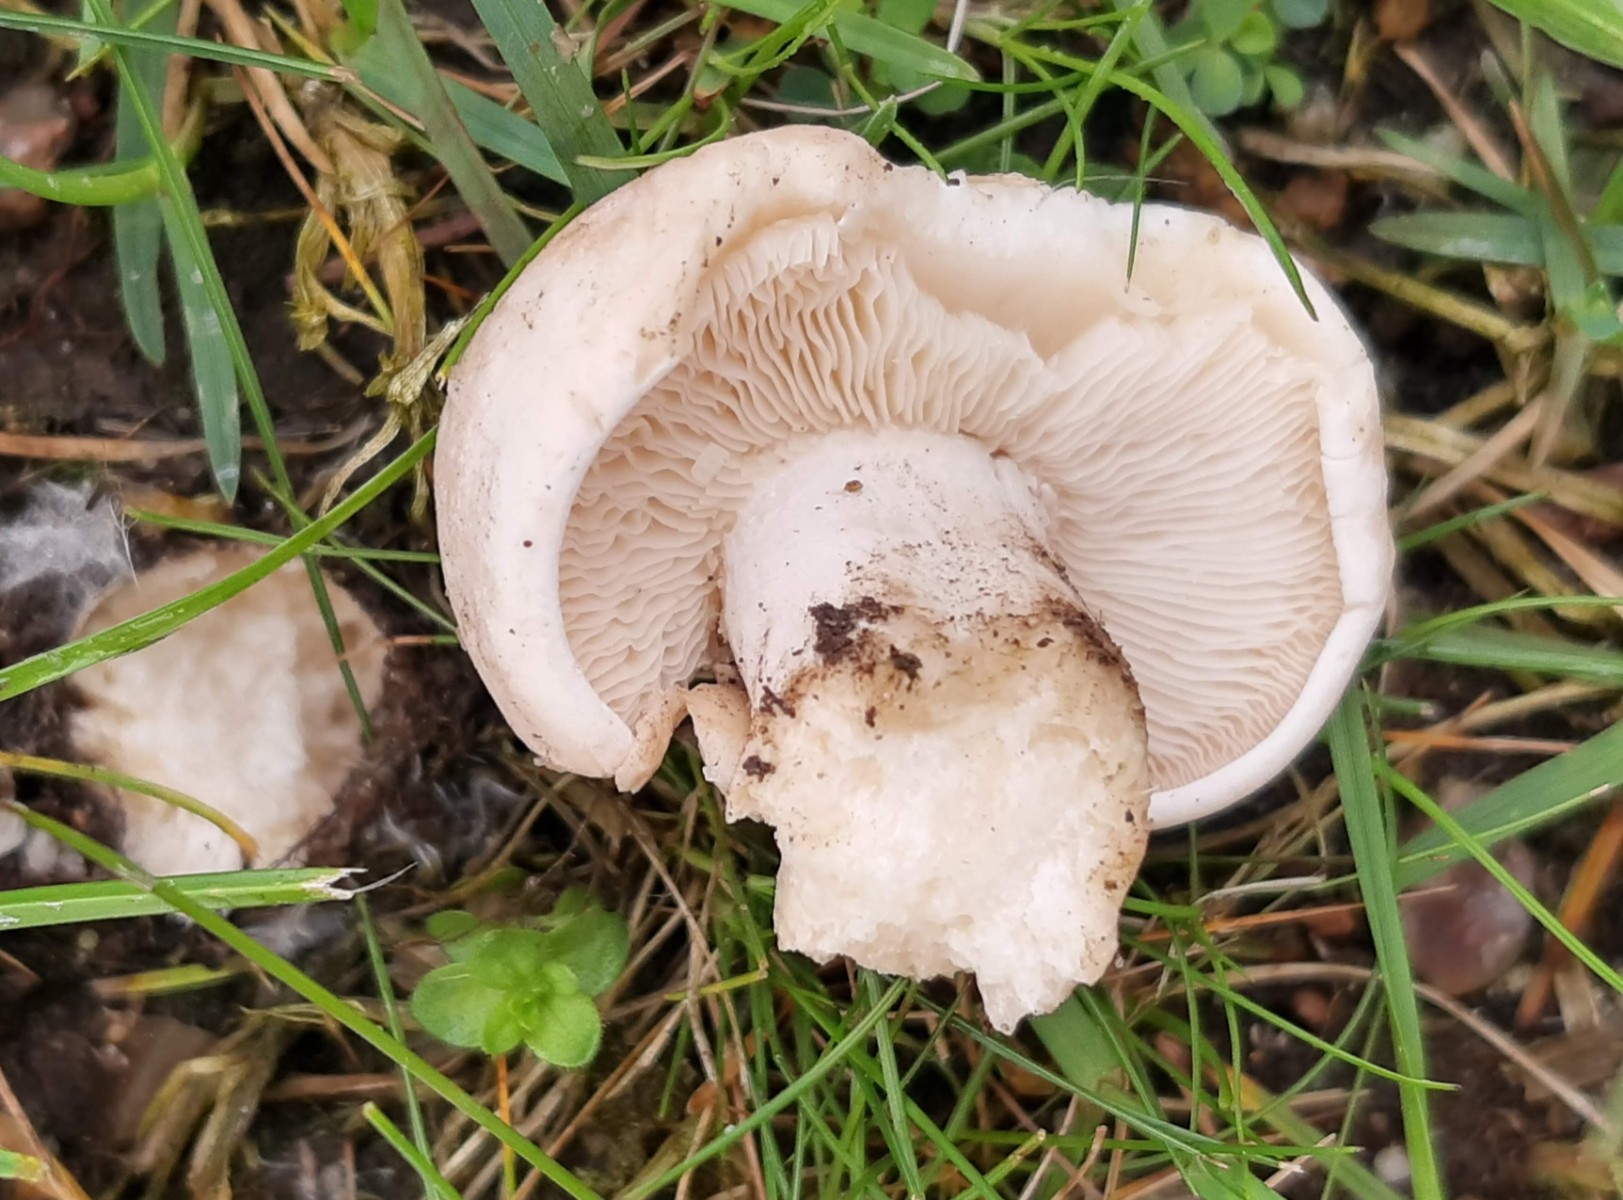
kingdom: Fungi
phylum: Basidiomycota
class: Agaricomycetes
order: Agaricales
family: Lyophyllaceae
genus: Calocybe
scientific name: Calocybe gambosa
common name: vårmusseron
